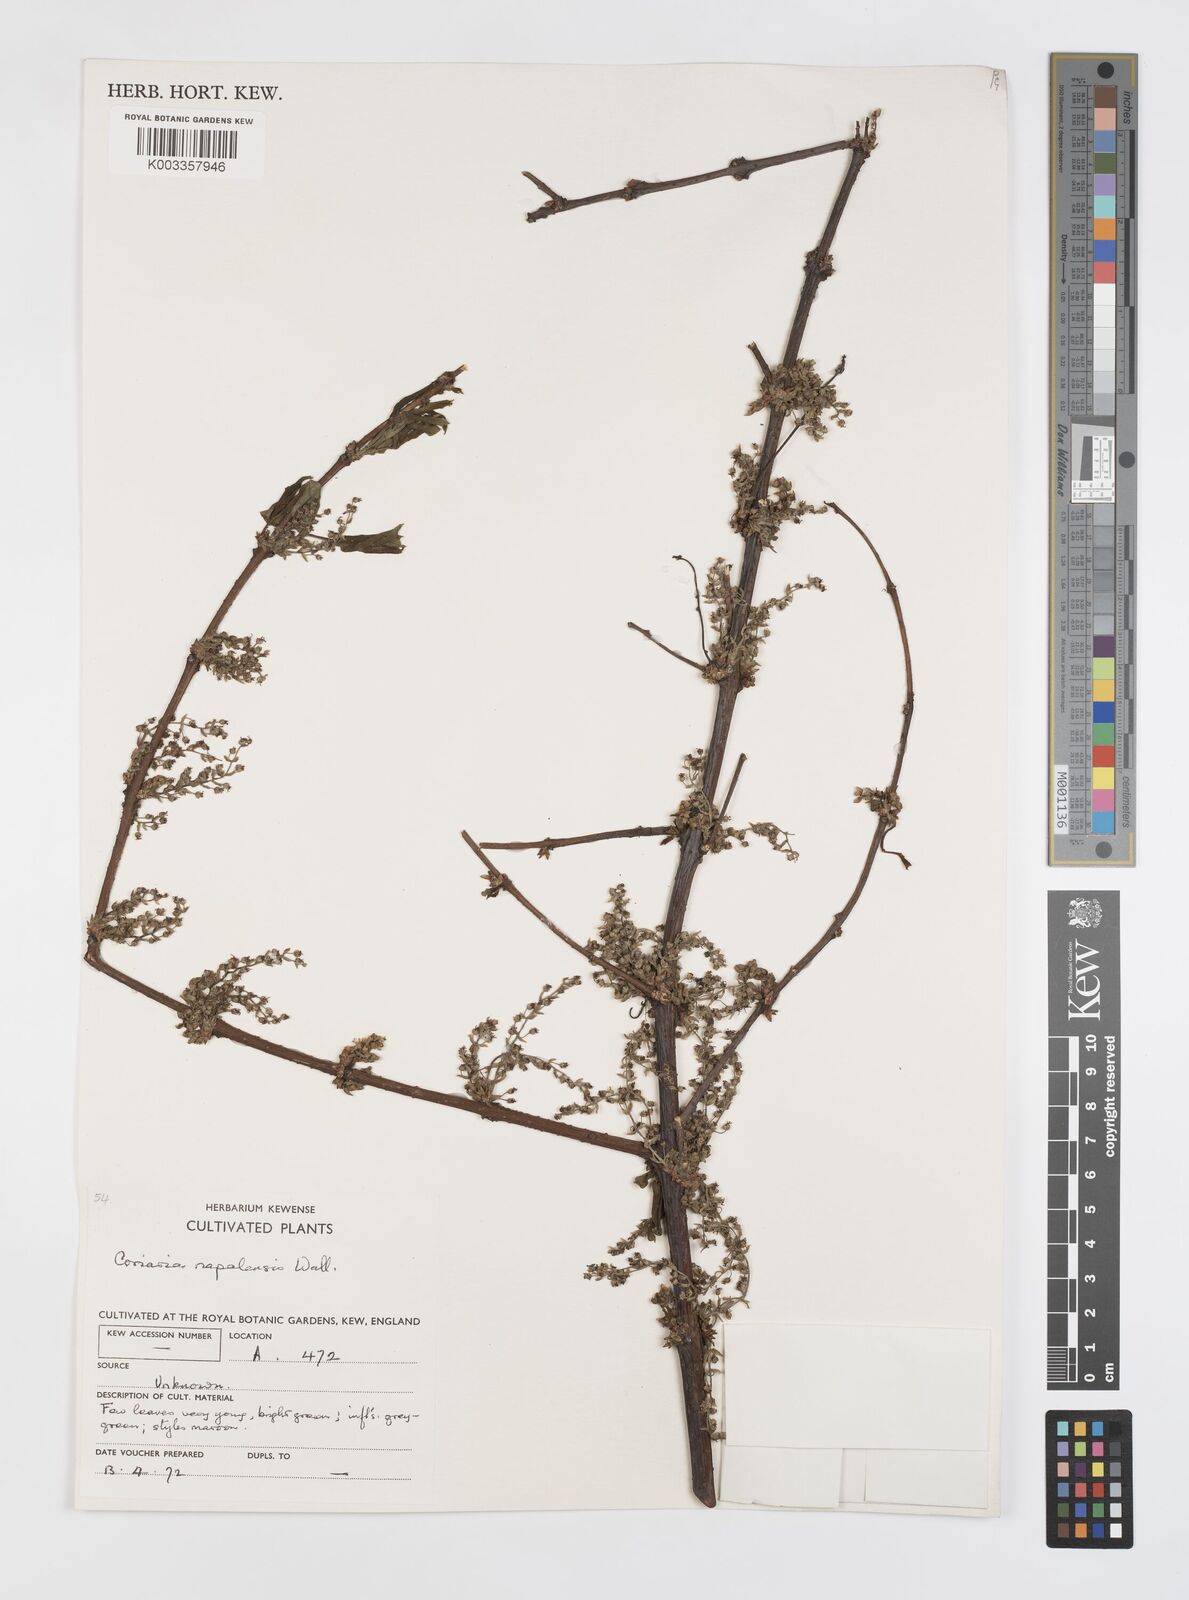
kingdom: Plantae
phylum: Tracheophyta
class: Magnoliopsida
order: Cucurbitales
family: Coriariaceae
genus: Coriaria
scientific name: Coriaria napalensis
